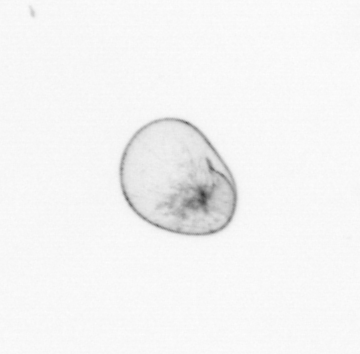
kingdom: Chromista
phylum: Myzozoa
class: Dinophyceae
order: Noctilucales
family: Noctilucaceae
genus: Noctiluca
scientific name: Noctiluca scintillans
